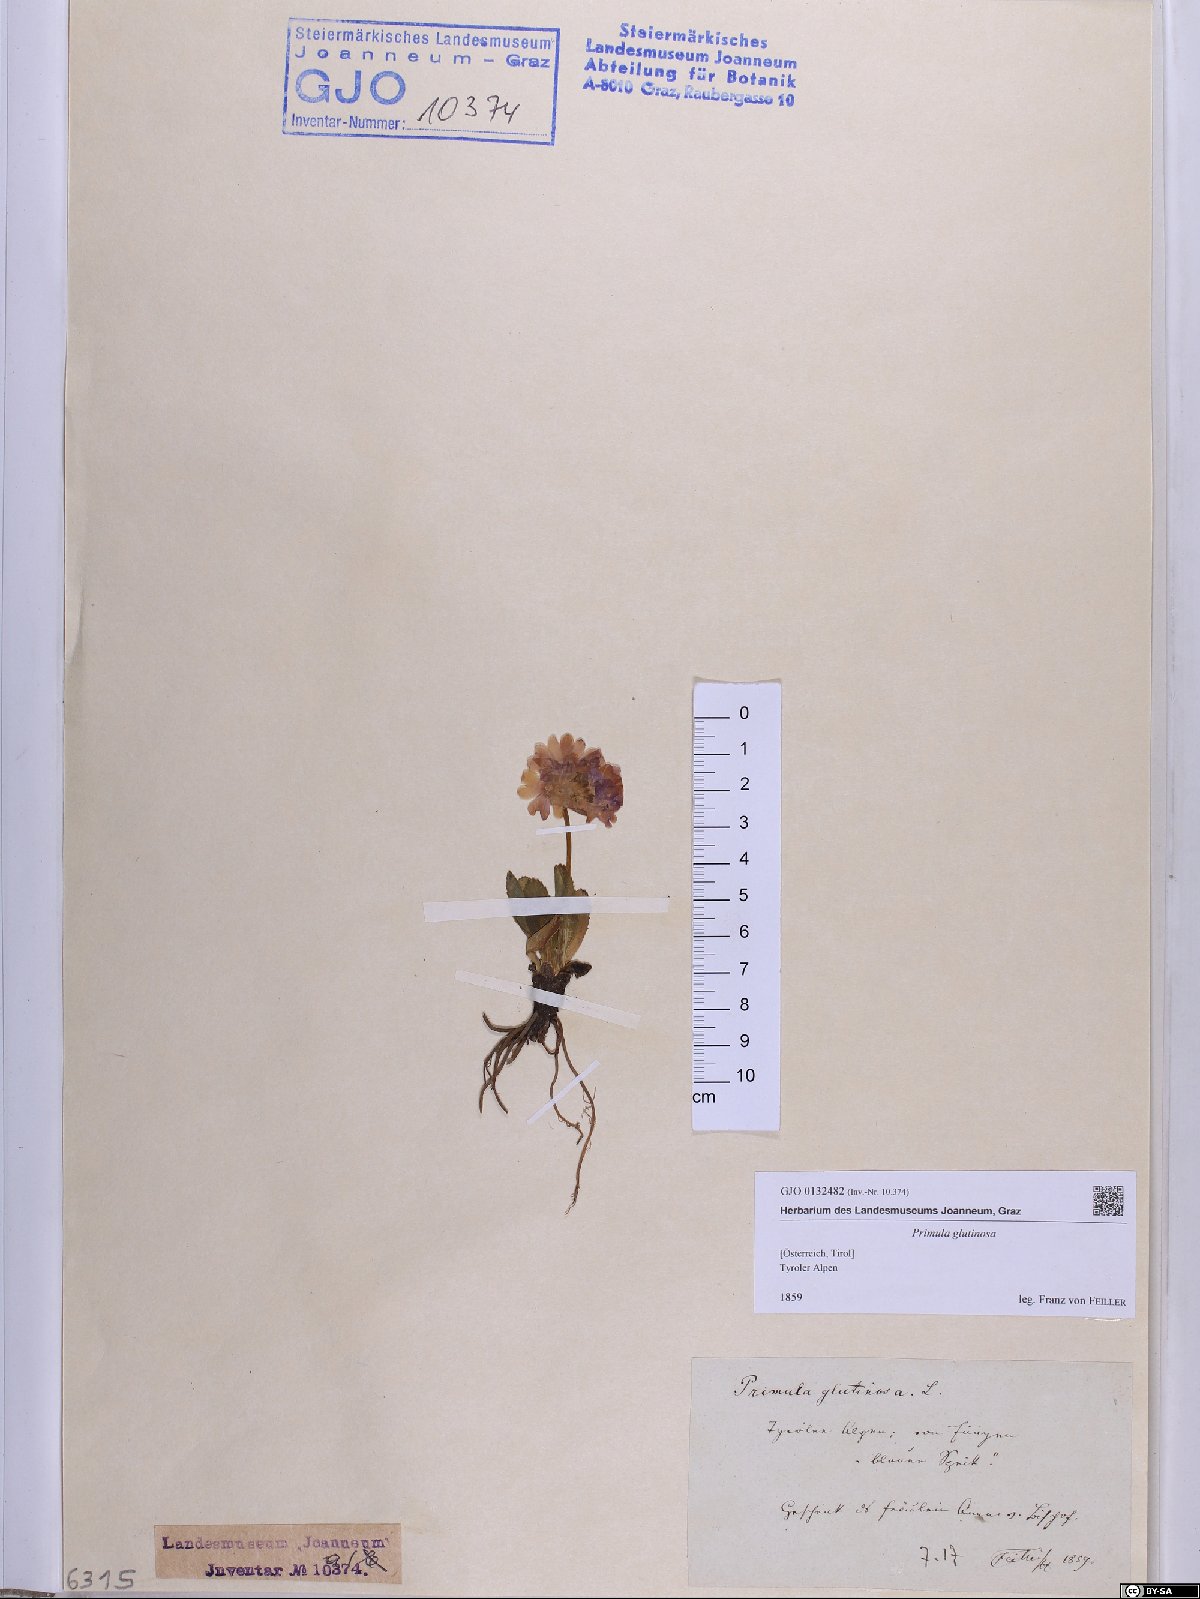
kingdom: Plantae
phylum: Tracheophyta
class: Magnoliopsida
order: Ericales
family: Primulaceae
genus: Primula
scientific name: Primula glutinosa
